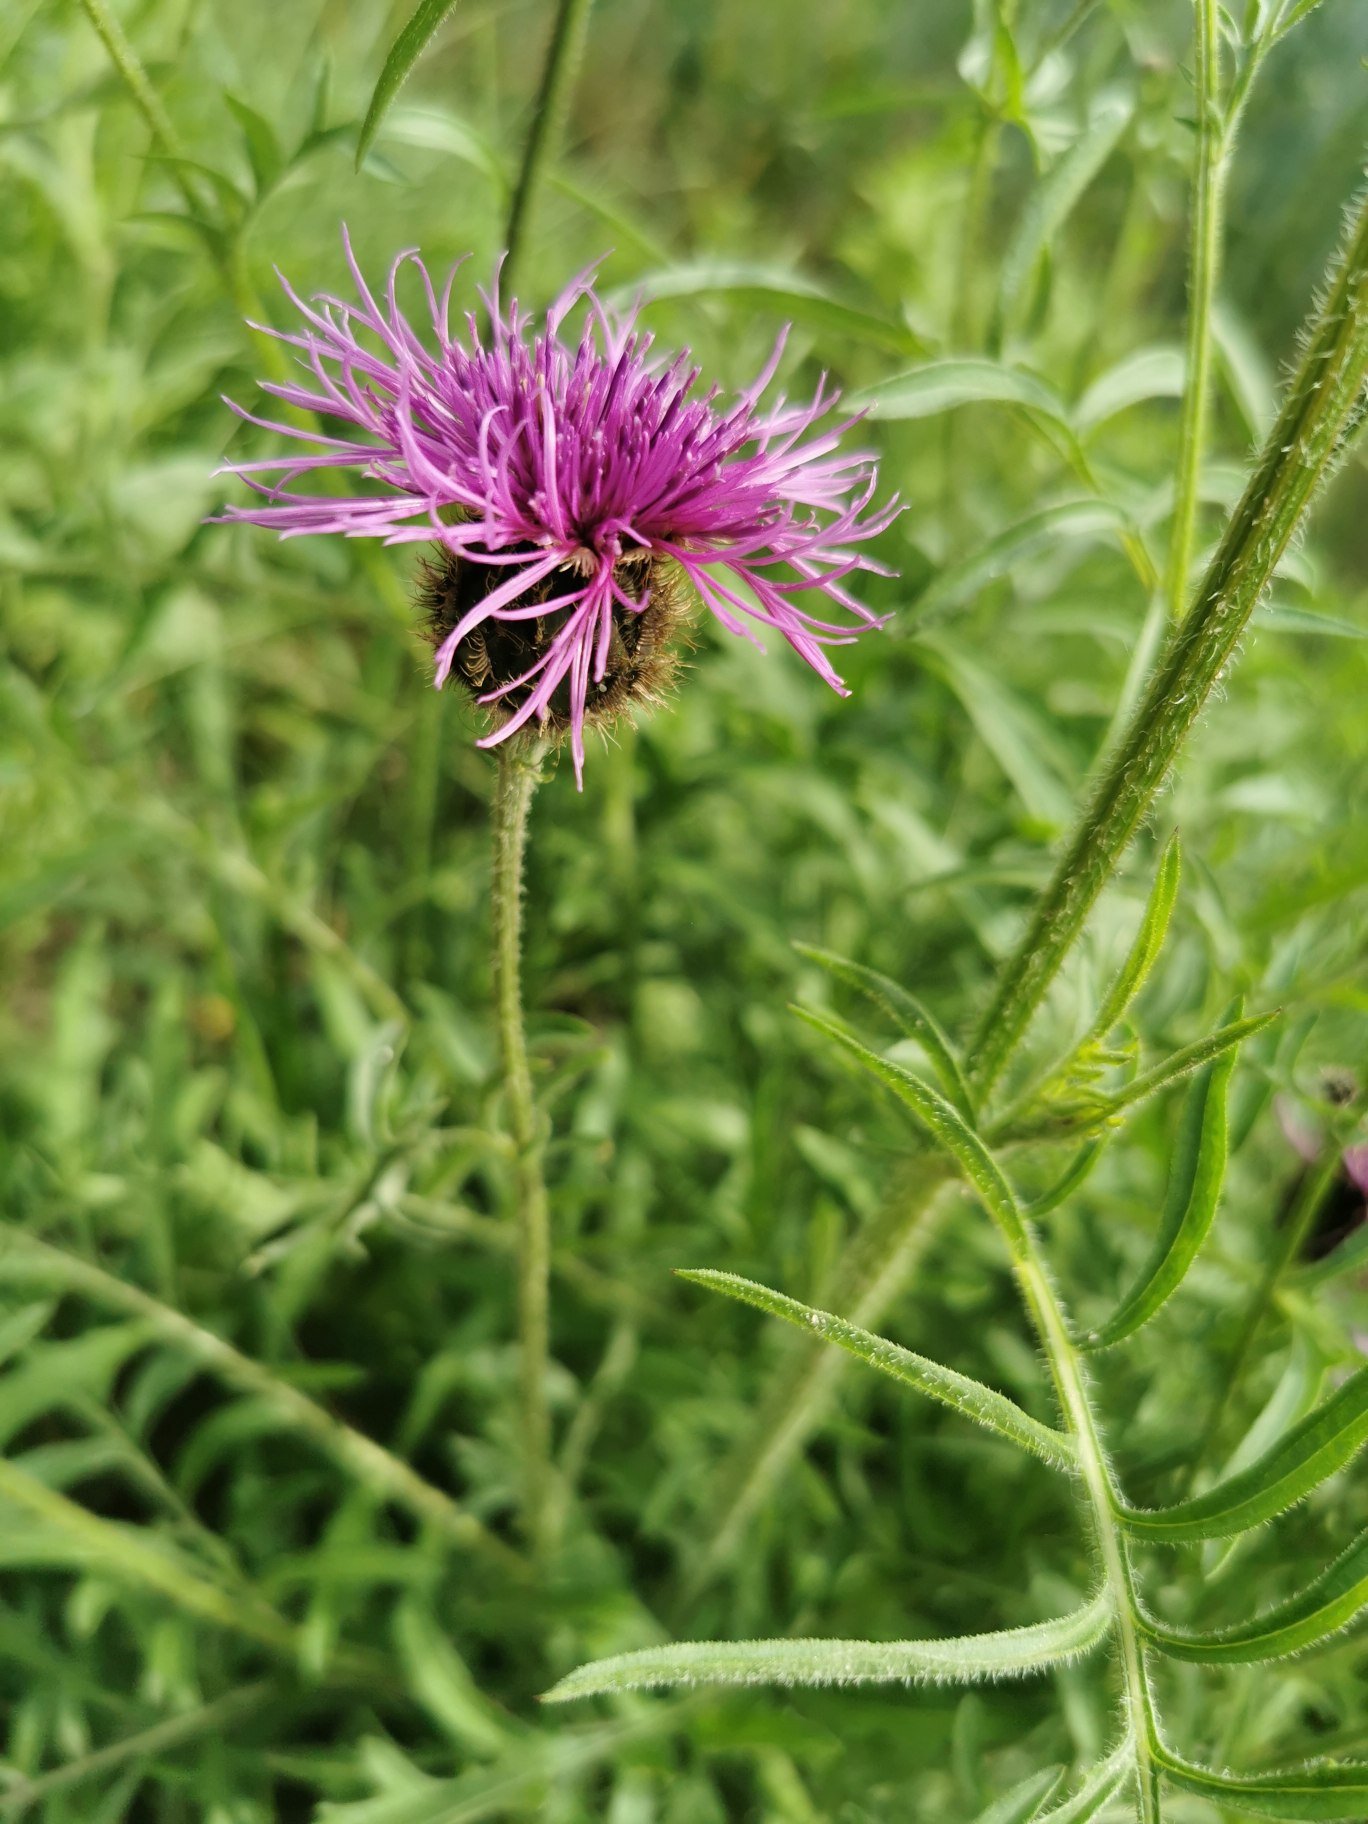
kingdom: Plantae
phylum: Tracheophyta
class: Magnoliopsida
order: Asterales
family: Asteraceae
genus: Centaurea
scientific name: Centaurea scabiosa
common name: Stor knopurt
